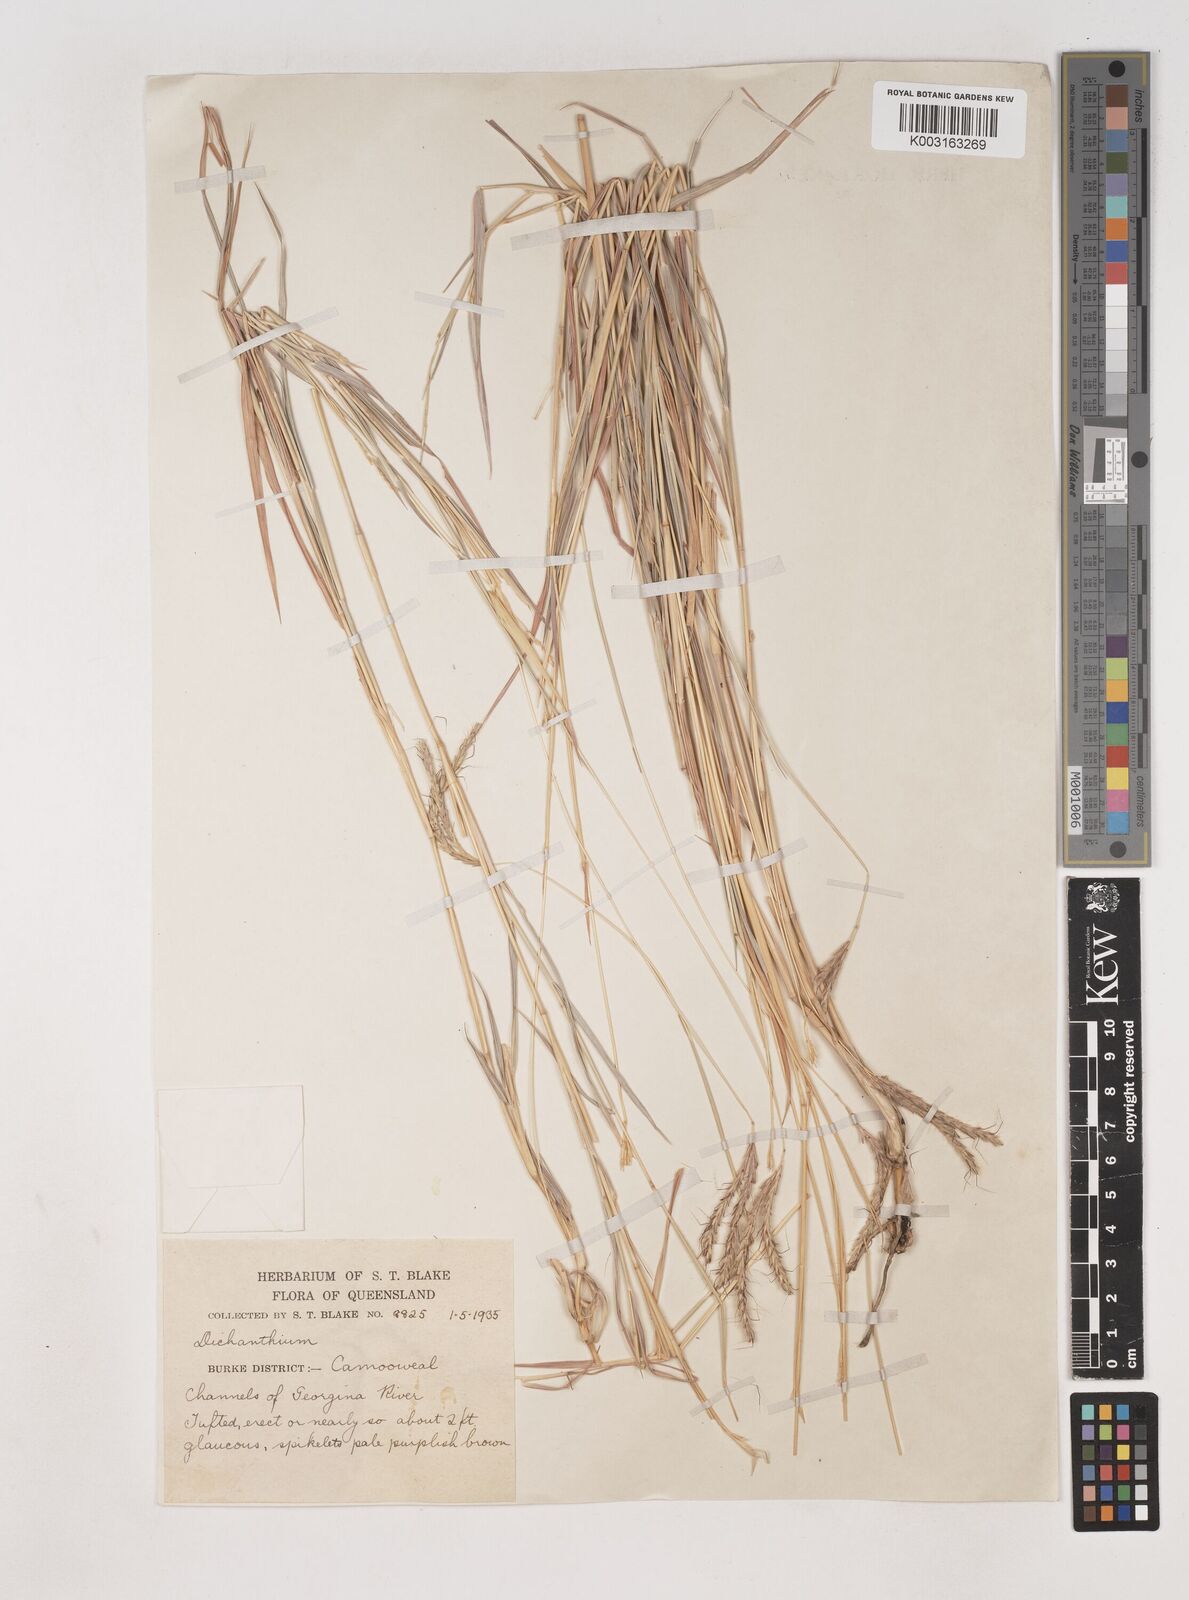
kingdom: Plantae
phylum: Tracheophyta
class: Liliopsida
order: Poales
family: Poaceae
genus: Dichanthium
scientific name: Dichanthium fecundum
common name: Bundle-bundle
